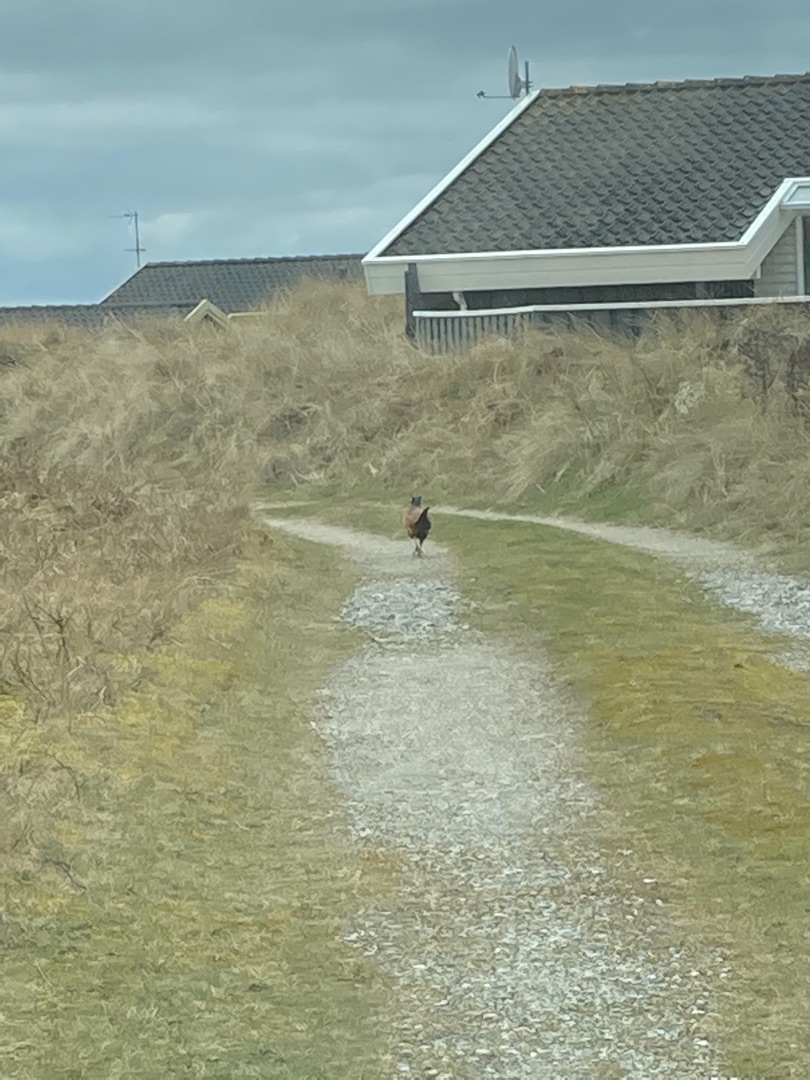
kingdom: Animalia
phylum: Chordata
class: Aves
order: Galliformes
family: Phasianidae
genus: Phasianus
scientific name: Phasianus colchicus
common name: Fasan
